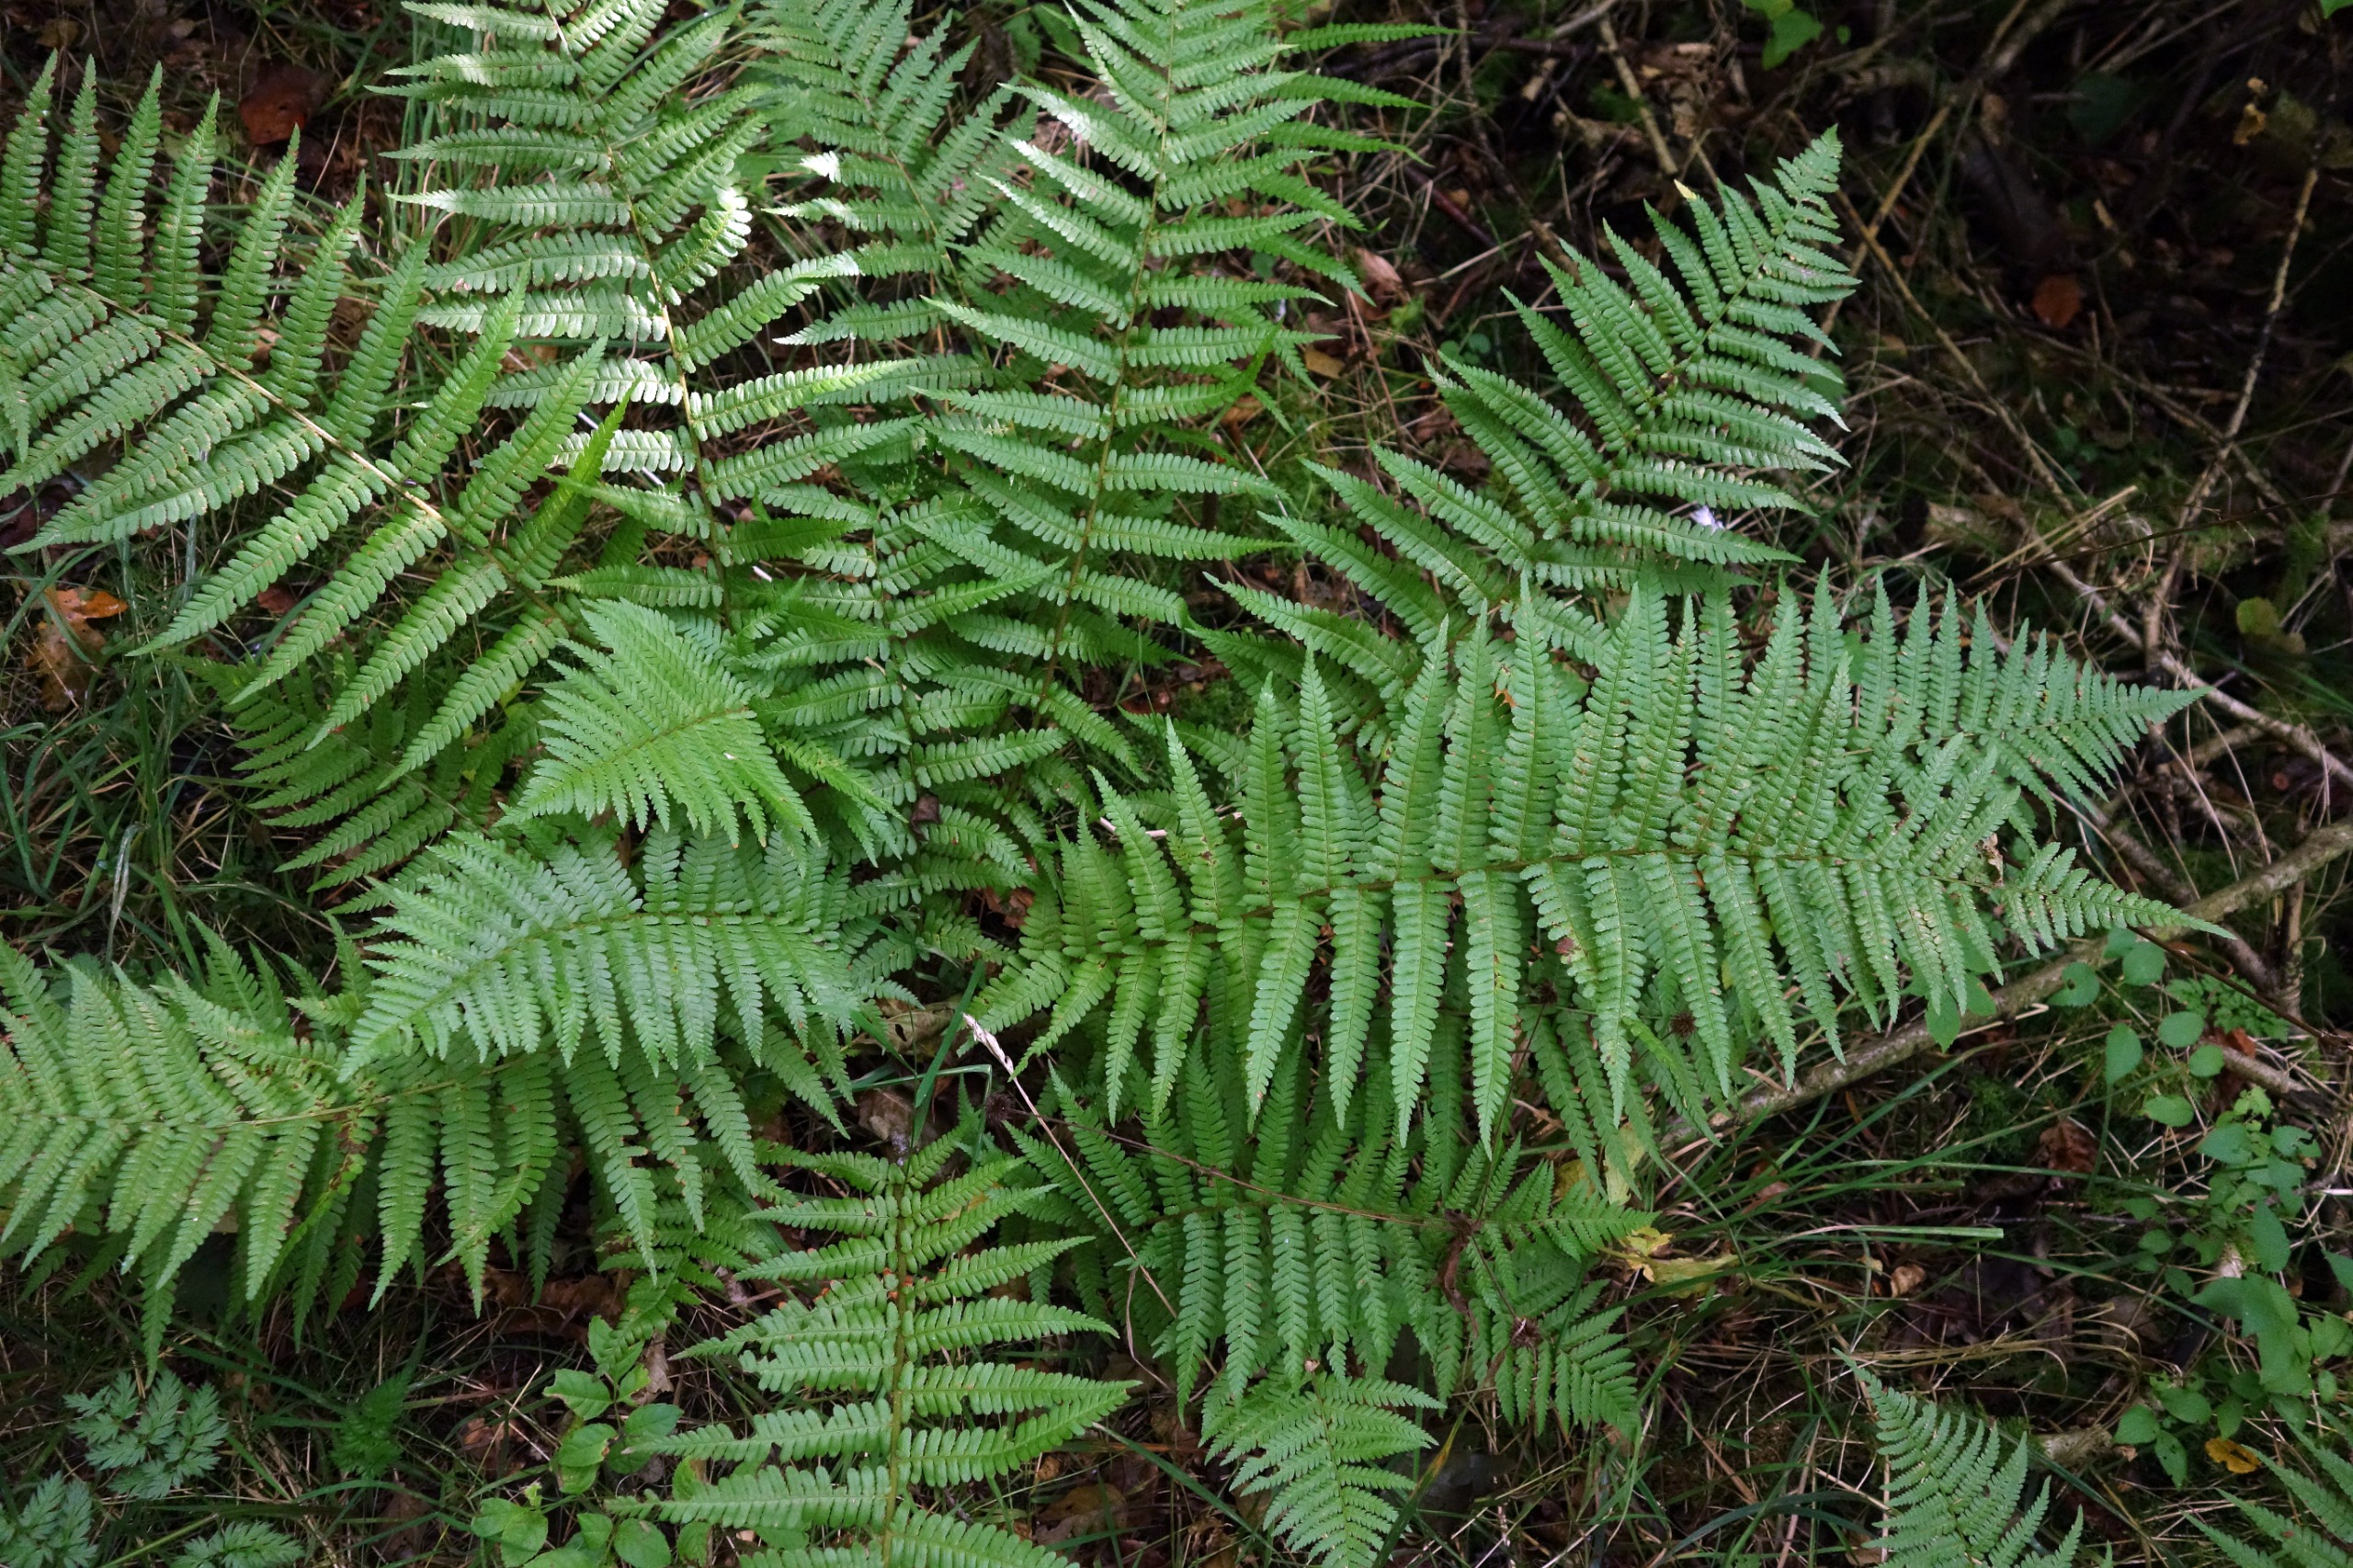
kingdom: Plantae
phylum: Tracheophyta
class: Polypodiopsida
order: Polypodiales
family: Dryopteridaceae
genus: Dryopteris
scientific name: Dryopteris filix-mas
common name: Almindelig mangeløv
